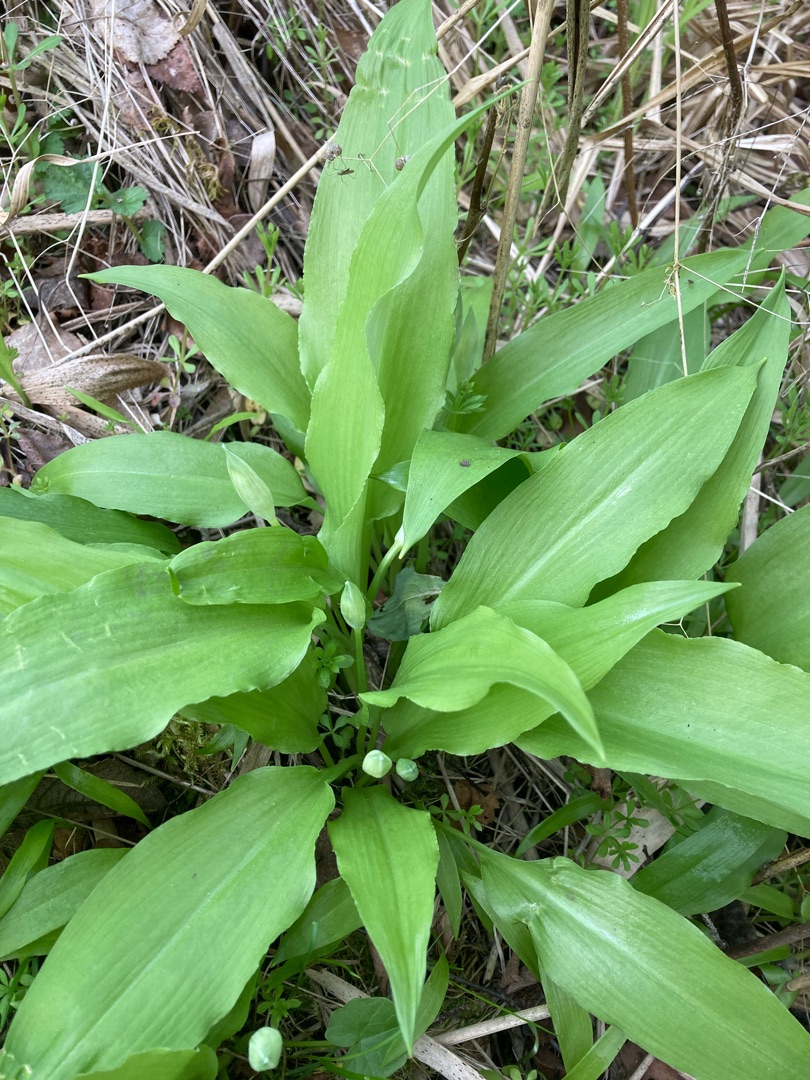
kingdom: Plantae
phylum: Tracheophyta
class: Liliopsida
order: Asparagales
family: Amaryllidaceae
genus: Allium
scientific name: Allium ursinum
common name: Rams-løg
